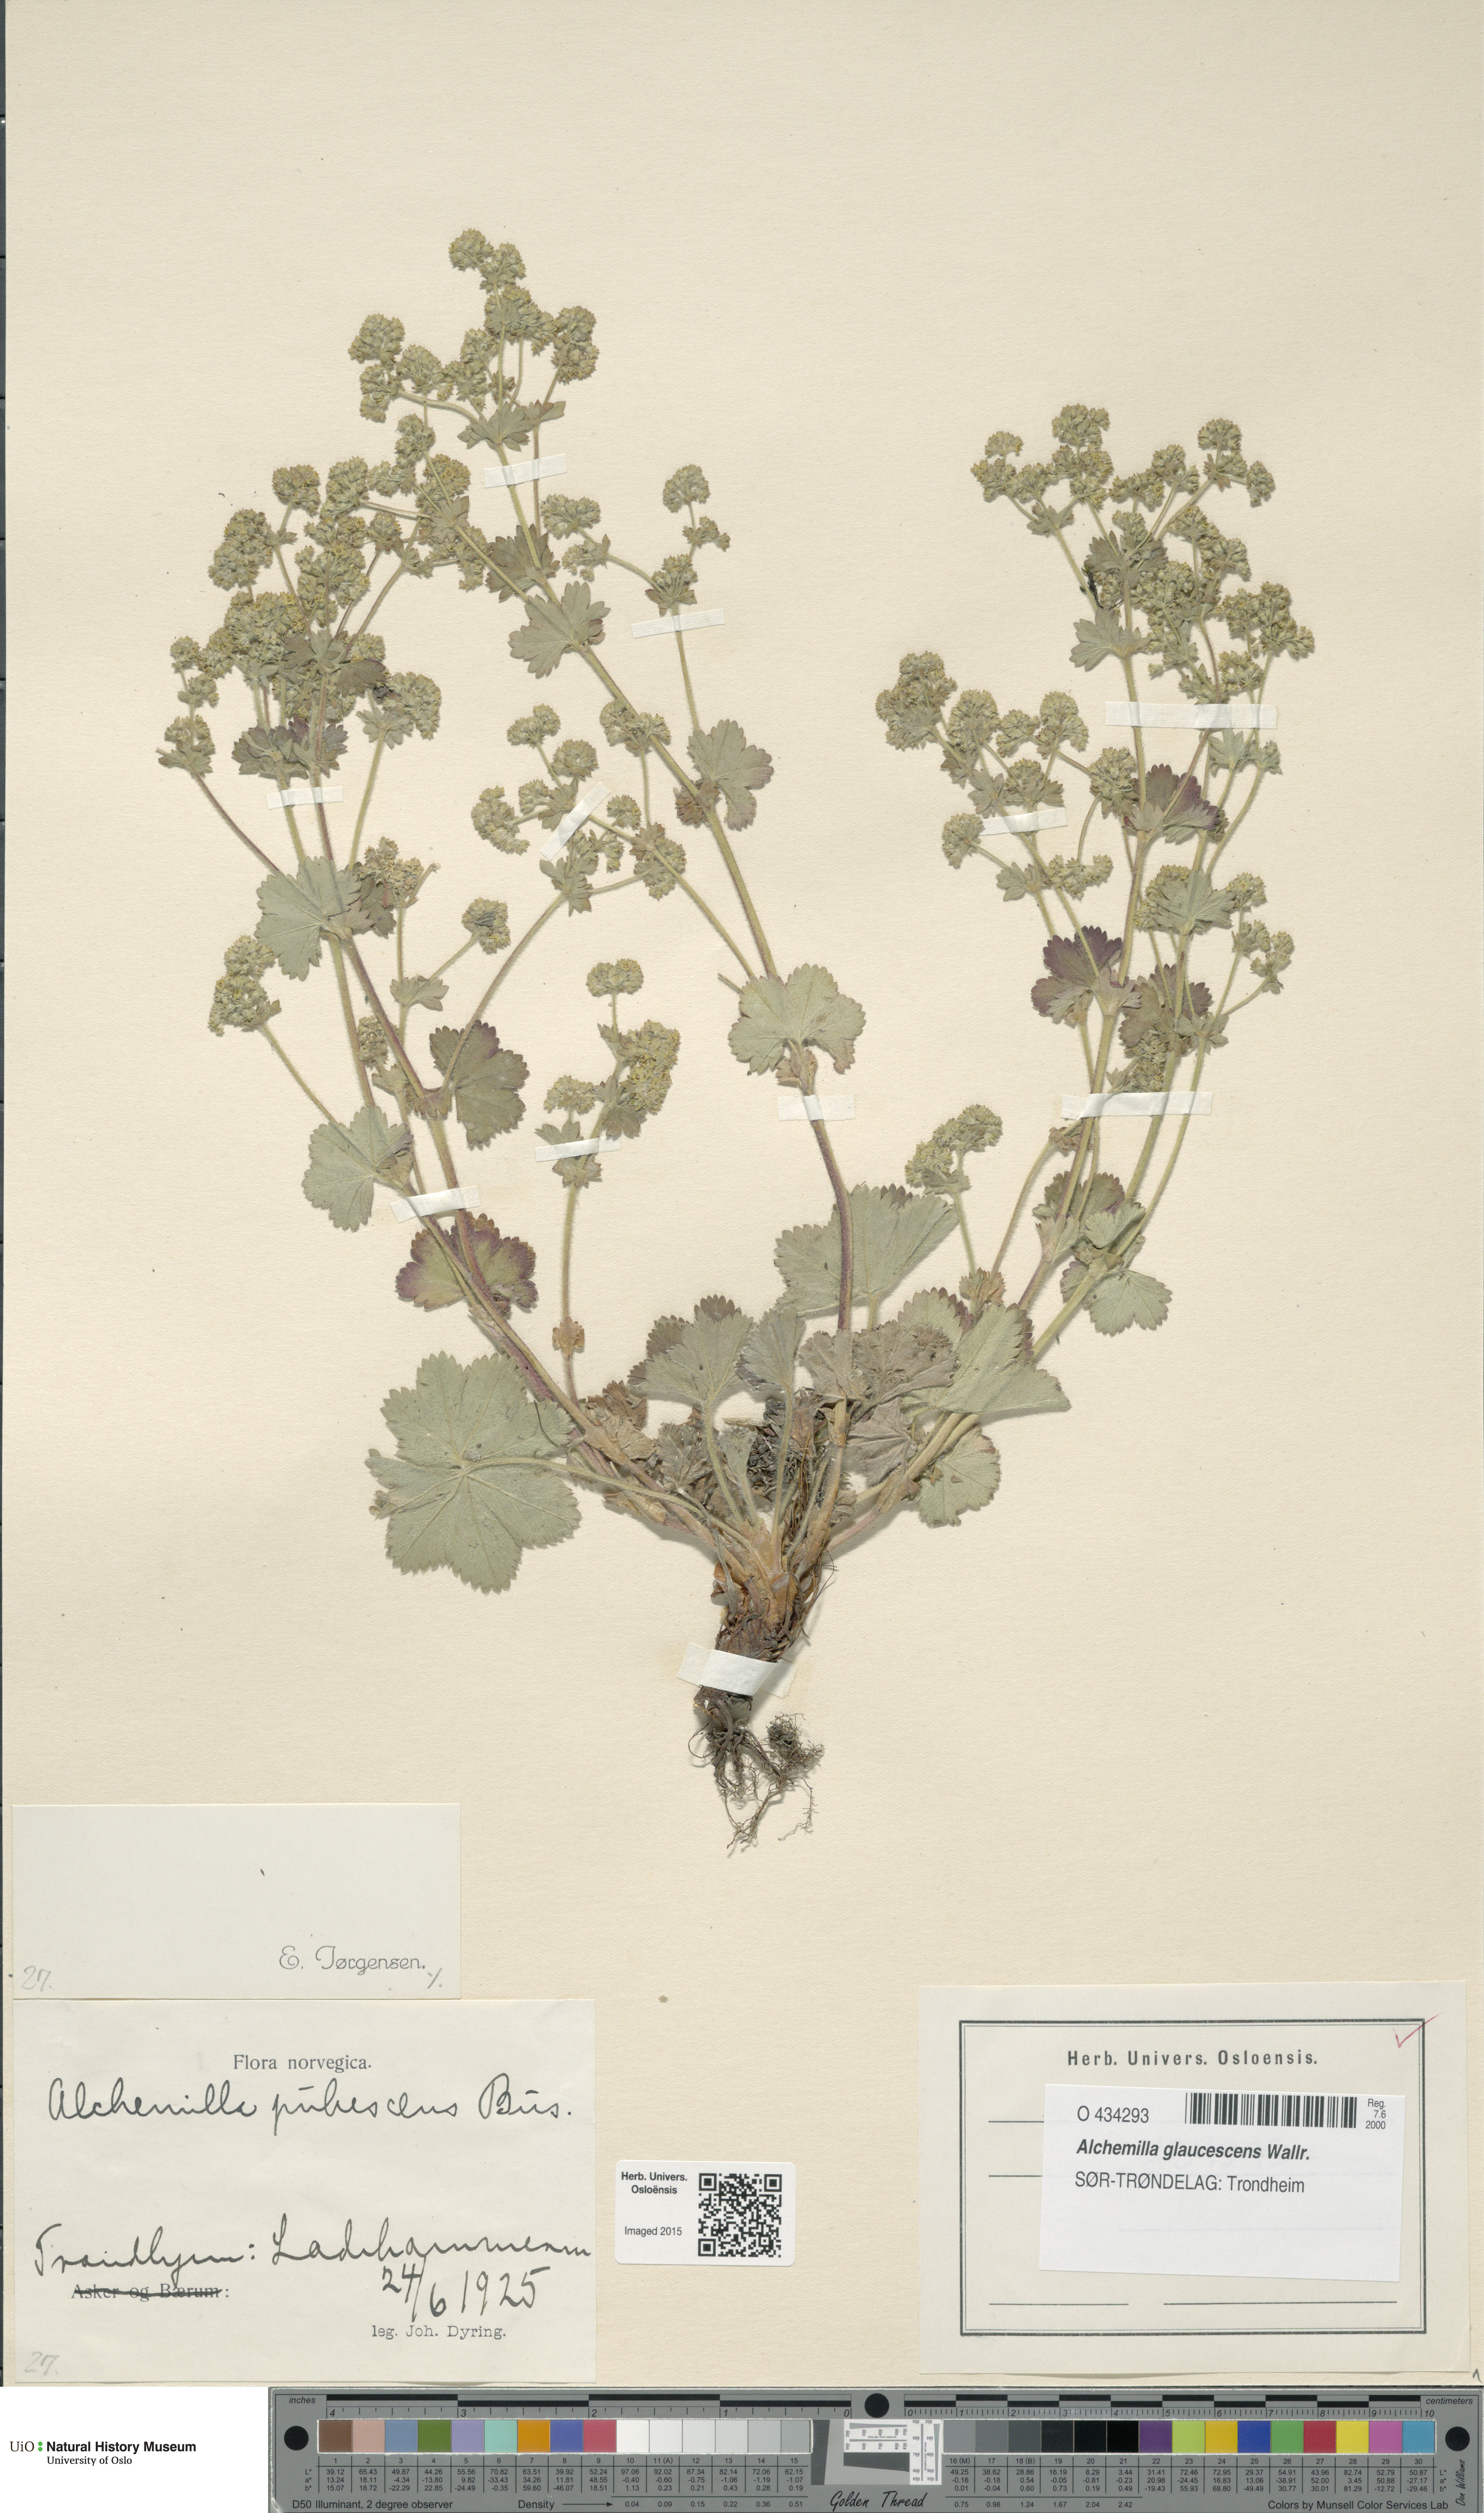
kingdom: Plantae
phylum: Tracheophyta
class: Magnoliopsida
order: Rosales
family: Rosaceae
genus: Alchemilla
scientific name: Alchemilla glaucescens
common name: Silky lady's mantle
